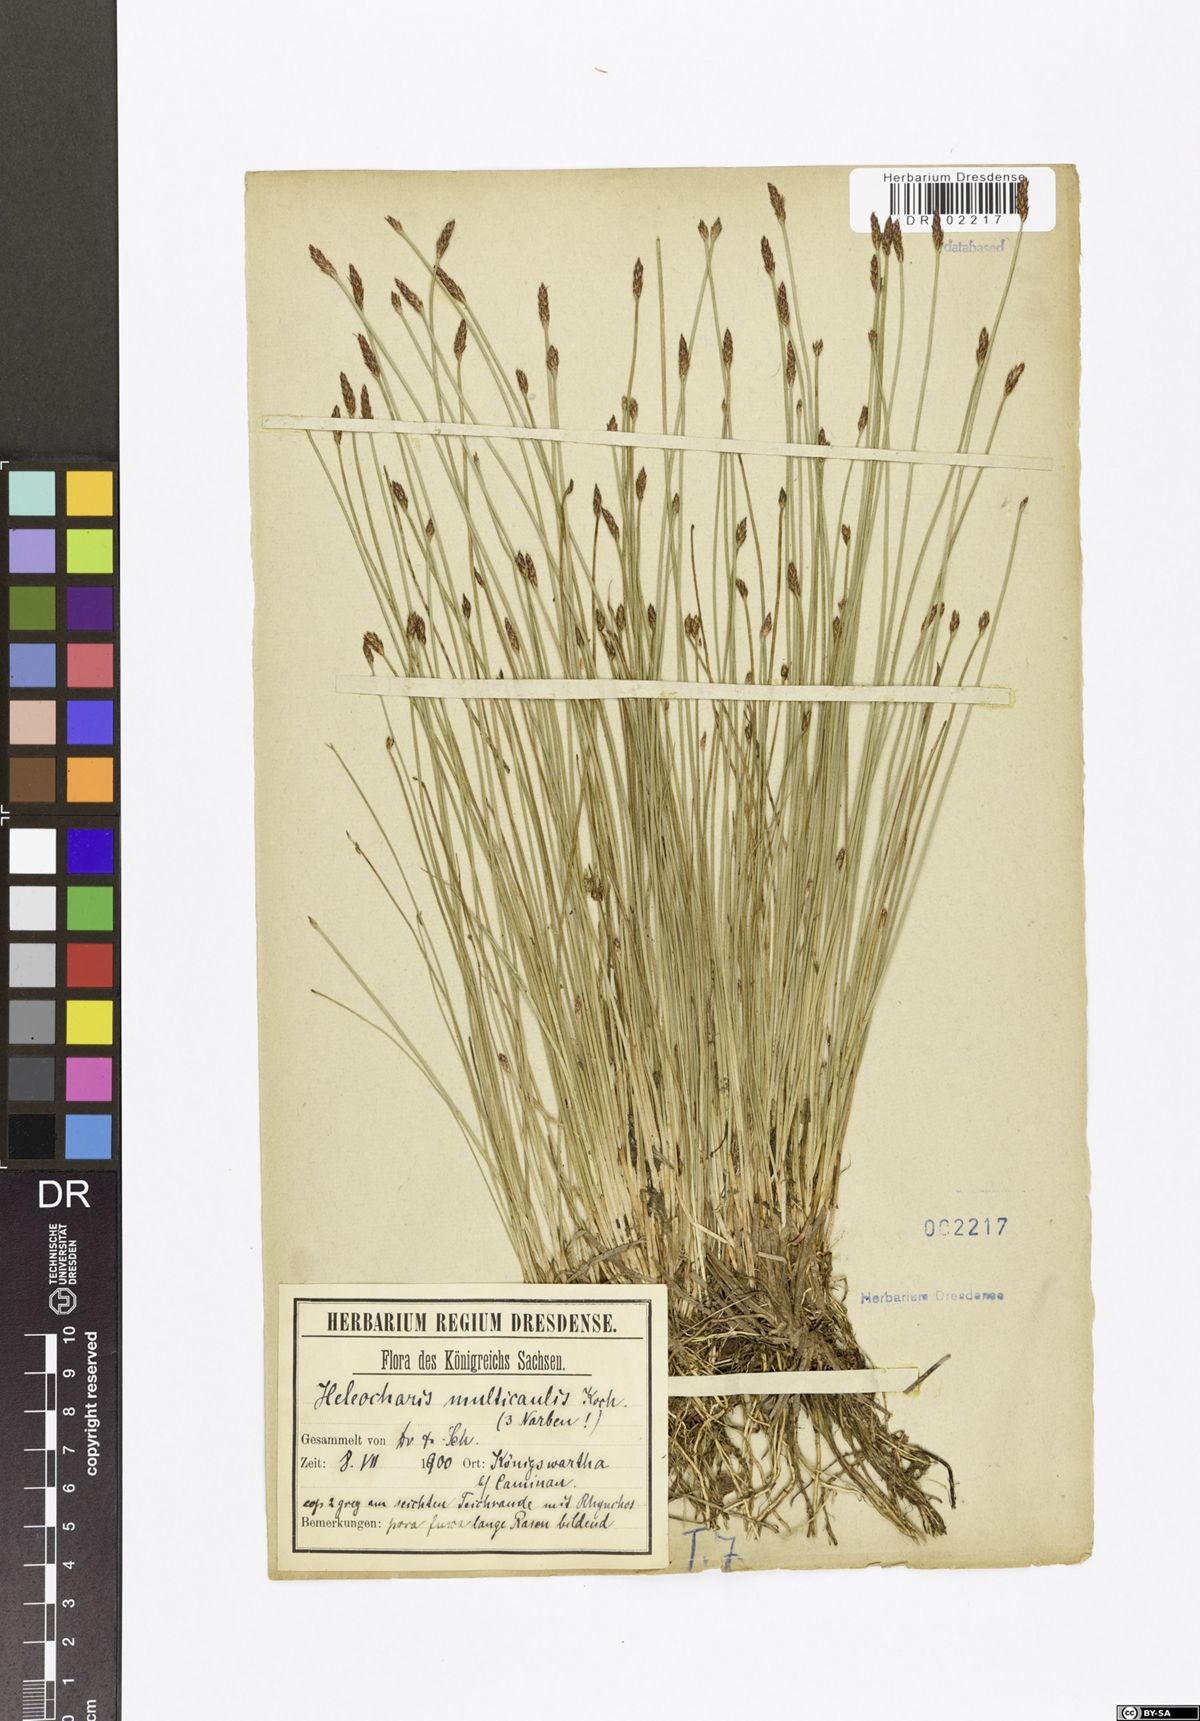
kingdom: Plantae
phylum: Tracheophyta
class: Liliopsida
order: Poales
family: Cyperaceae
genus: Eleocharis
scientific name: Eleocharis multicaulis
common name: Many-stalked spike-rush
